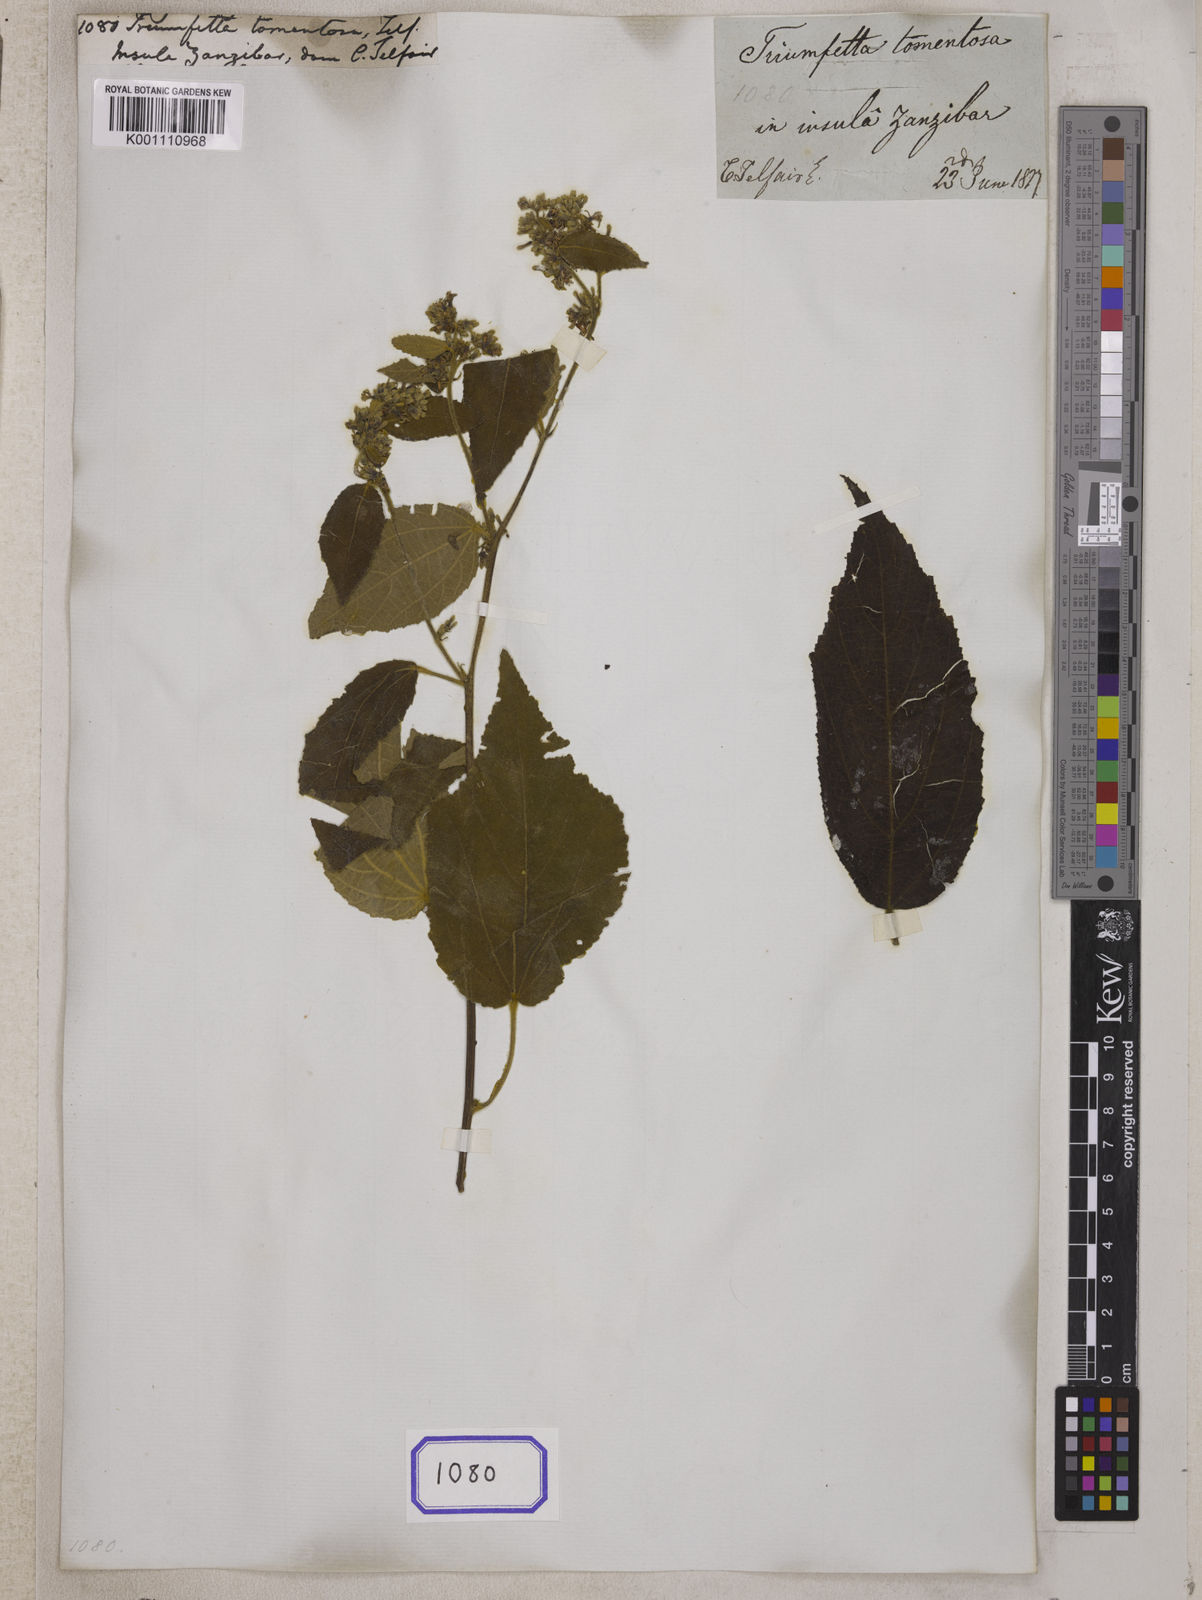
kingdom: Plantae
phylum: Tracheophyta
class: Magnoliopsida
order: Malvales
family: Malvaceae
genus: Triumfetta
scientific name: Triumfetta
